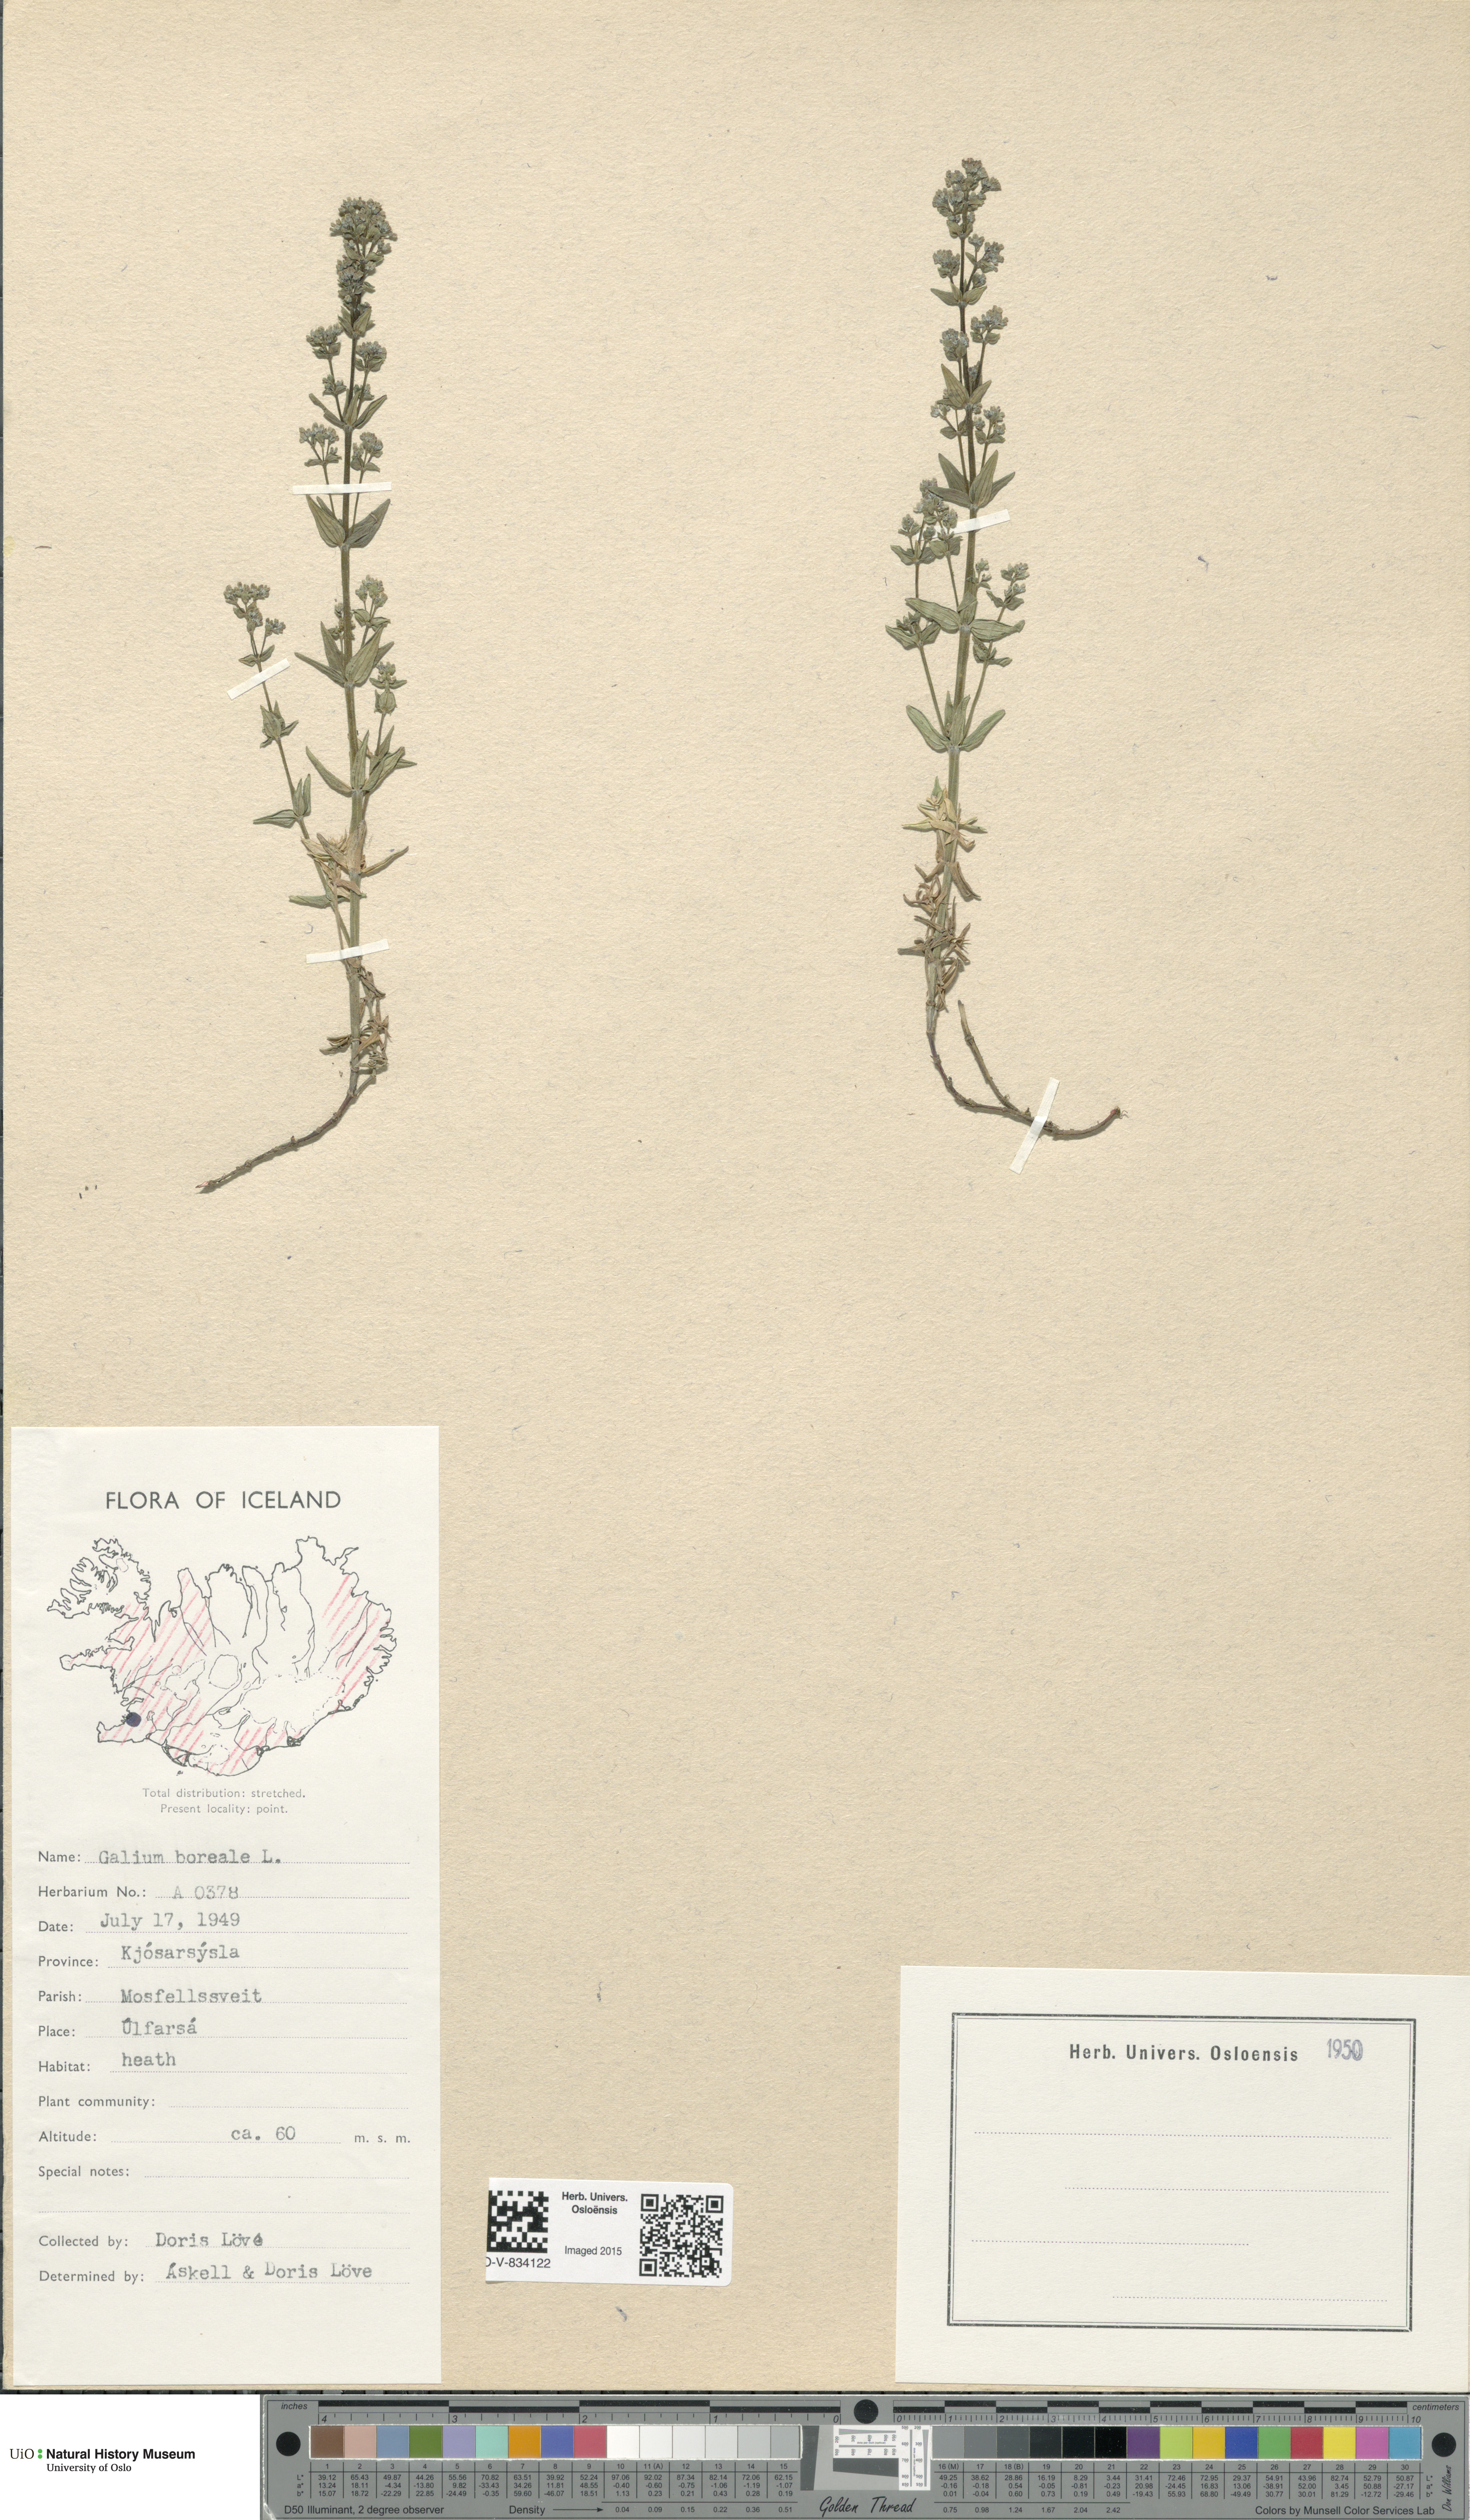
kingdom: Plantae
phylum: Tracheophyta
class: Magnoliopsida
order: Gentianales
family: Rubiaceae
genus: Galium
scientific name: Galium boreale
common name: Northern bedstraw
